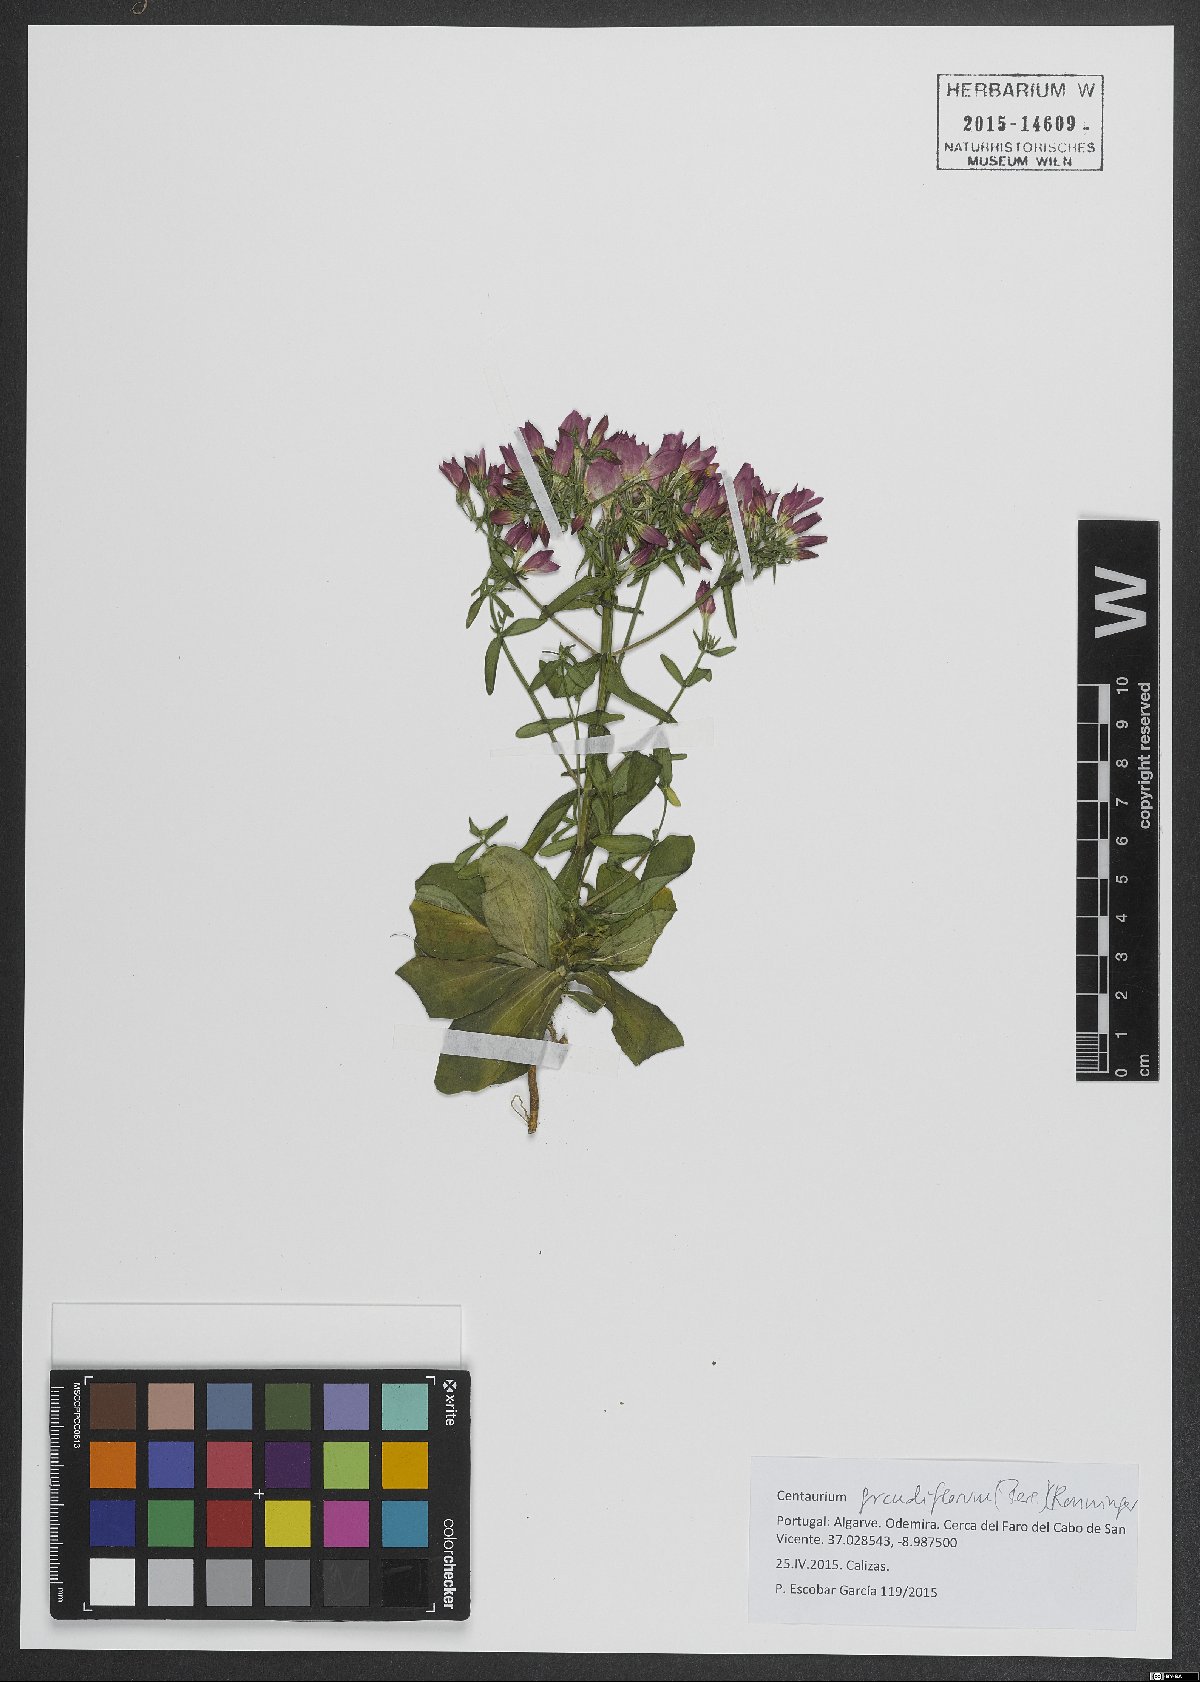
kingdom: Plantae
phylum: Tracheophyta
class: Magnoliopsida
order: Gentianales
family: Gentianaceae
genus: Centaurium
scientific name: Centaurium grandiflorum
